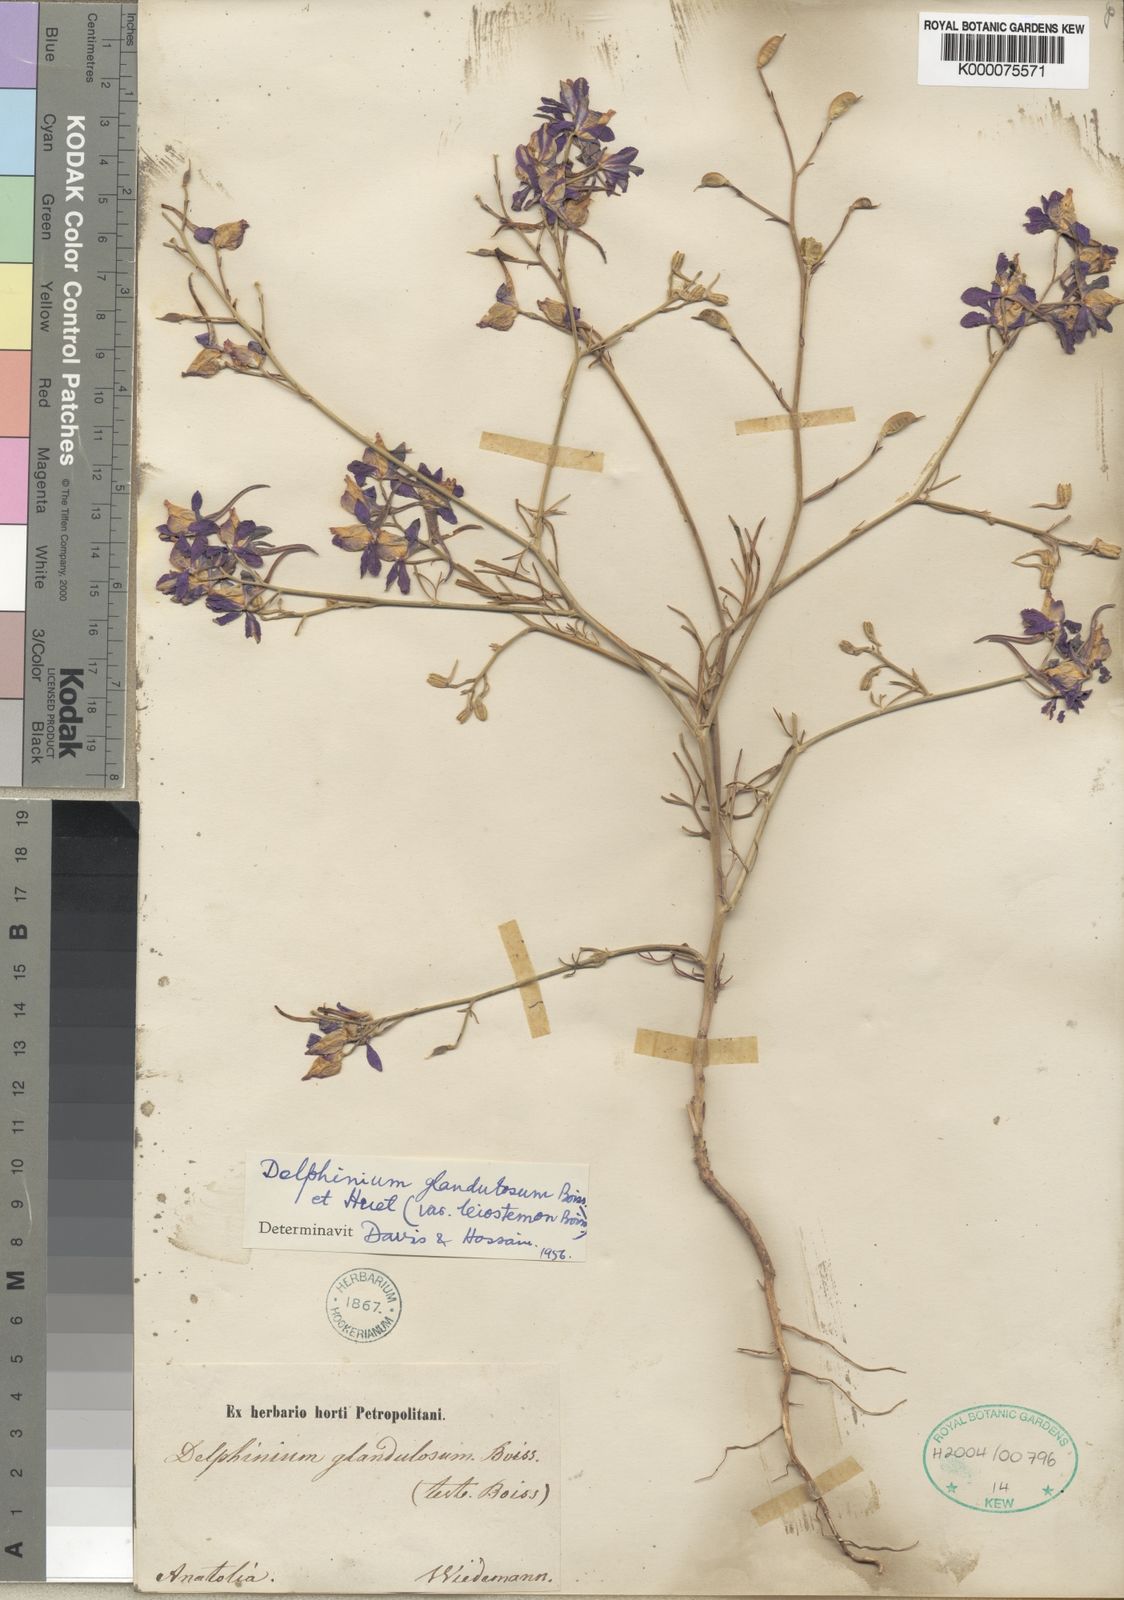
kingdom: Plantae
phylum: Tracheophyta
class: Magnoliopsida
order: Ranunculales
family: Ranunculaceae
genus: Delphinium
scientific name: Delphinium glandulosum
